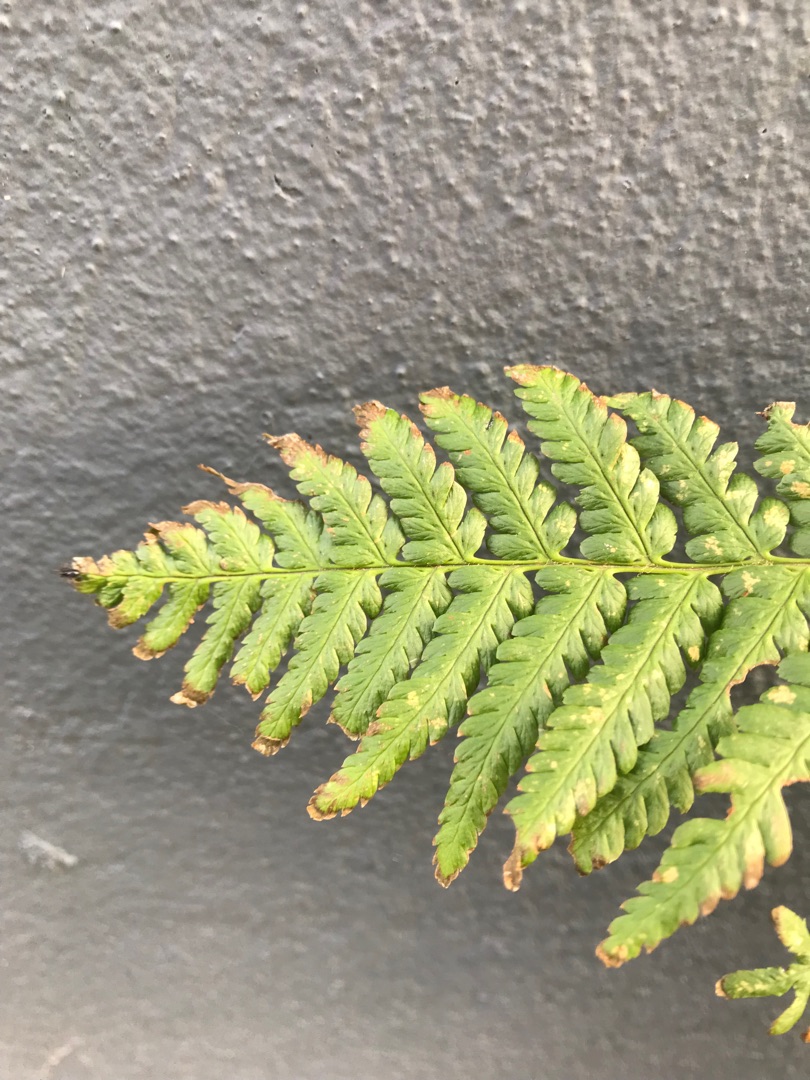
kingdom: Plantae
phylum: Tracheophyta
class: Polypodiopsida
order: Polypodiales
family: Dryopteridaceae
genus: Dryopteris
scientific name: Dryopteris filix-mas
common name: Almindelig mangeløv
